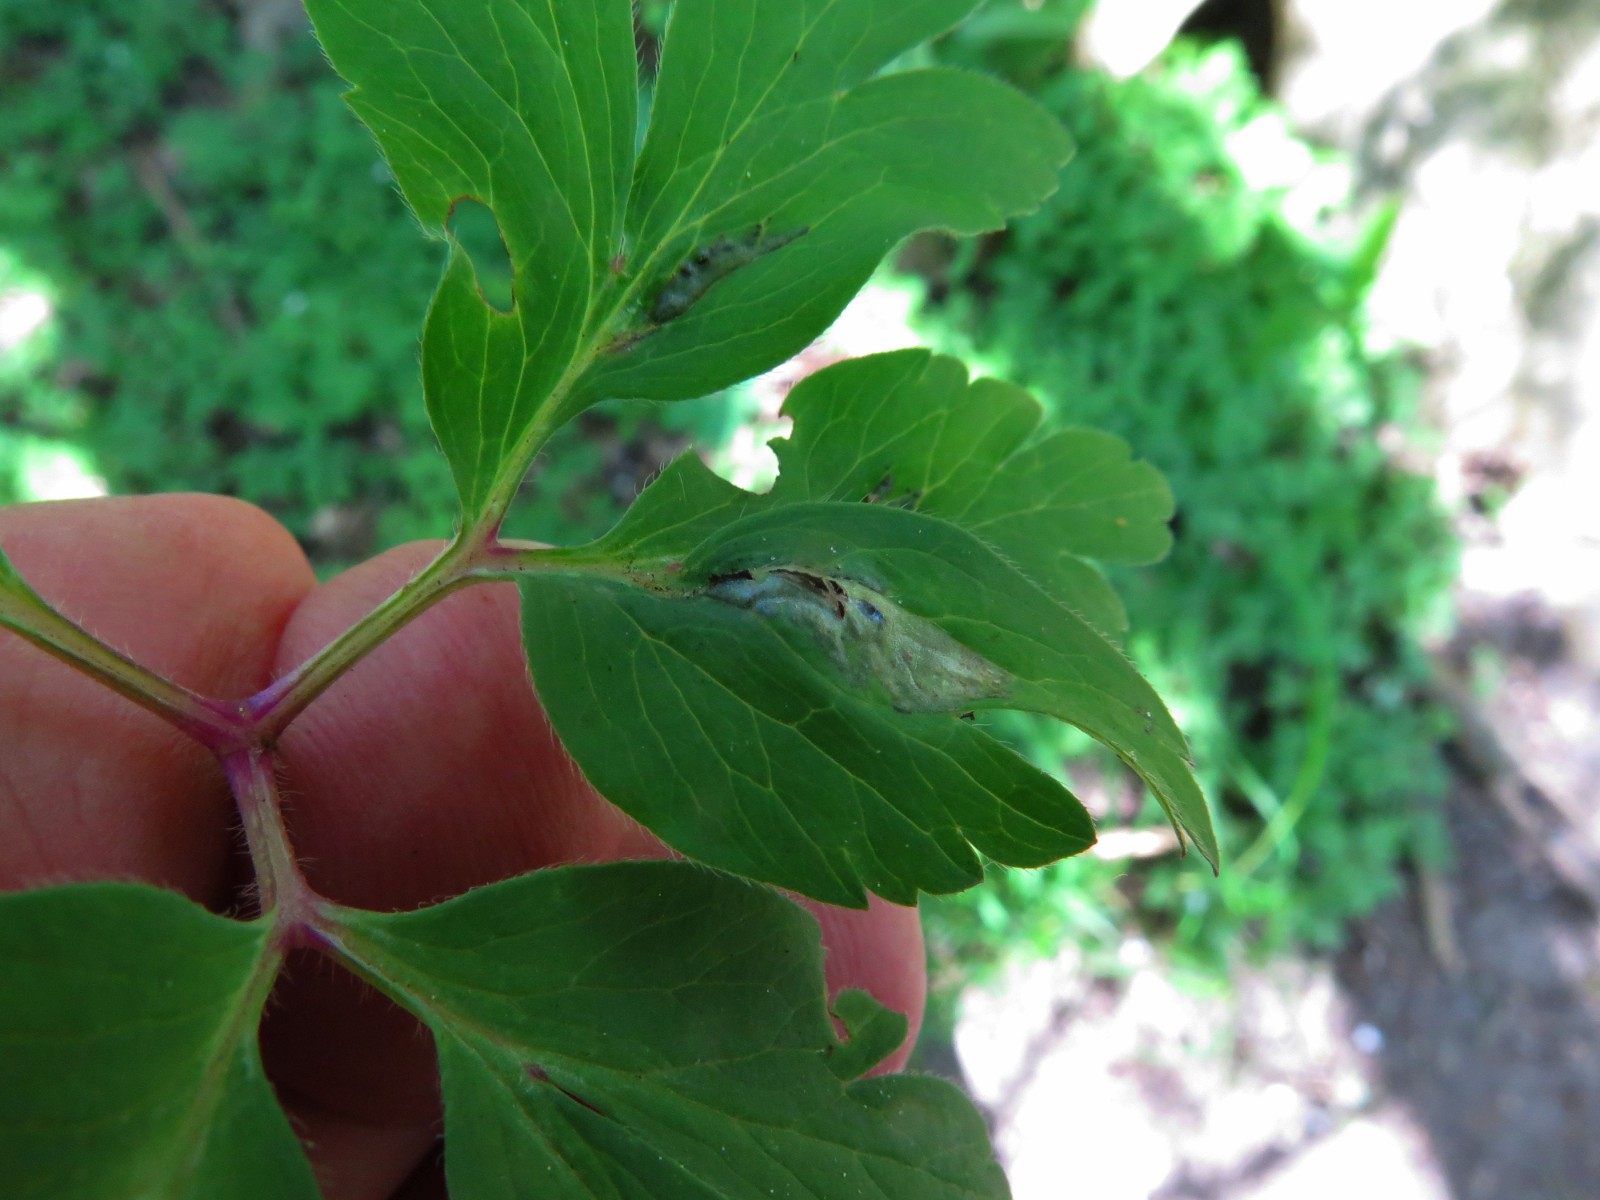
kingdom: Fungi
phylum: Basidiomycota
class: Ustilaginomycetes
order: Urocystidales
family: Urocystidaceae
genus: Urocystis
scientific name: Urocystis anemones
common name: anemone-brand
